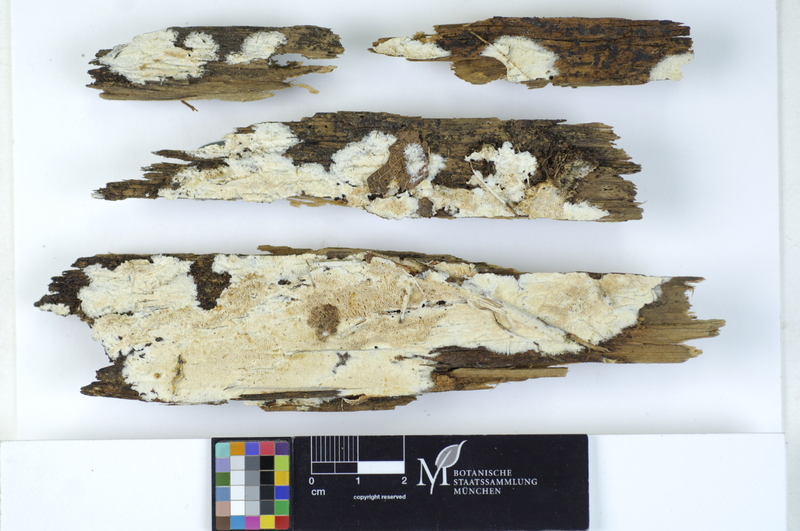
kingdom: Fungi
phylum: Basidiomycota
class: Agaricomycetes
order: Polyporales
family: Incrustoporiaceae
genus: Skeletocutis
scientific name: Skeletocutis subincarnata
